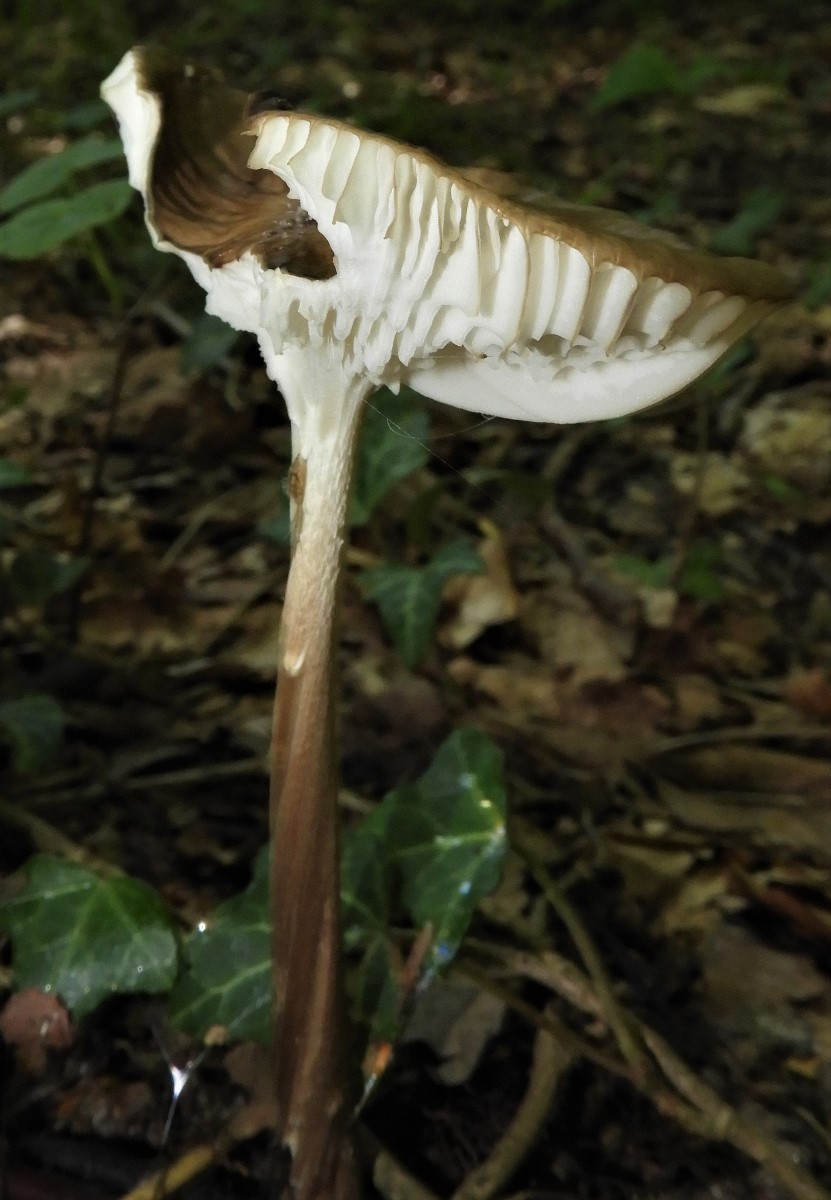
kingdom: Fungi
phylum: Basidiomycota
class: Agaricomycetes
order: Agaricales
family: Physalacriaceae
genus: Hymenopellis
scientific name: Hymenopellis radicata
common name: almindelig pælerodshat
